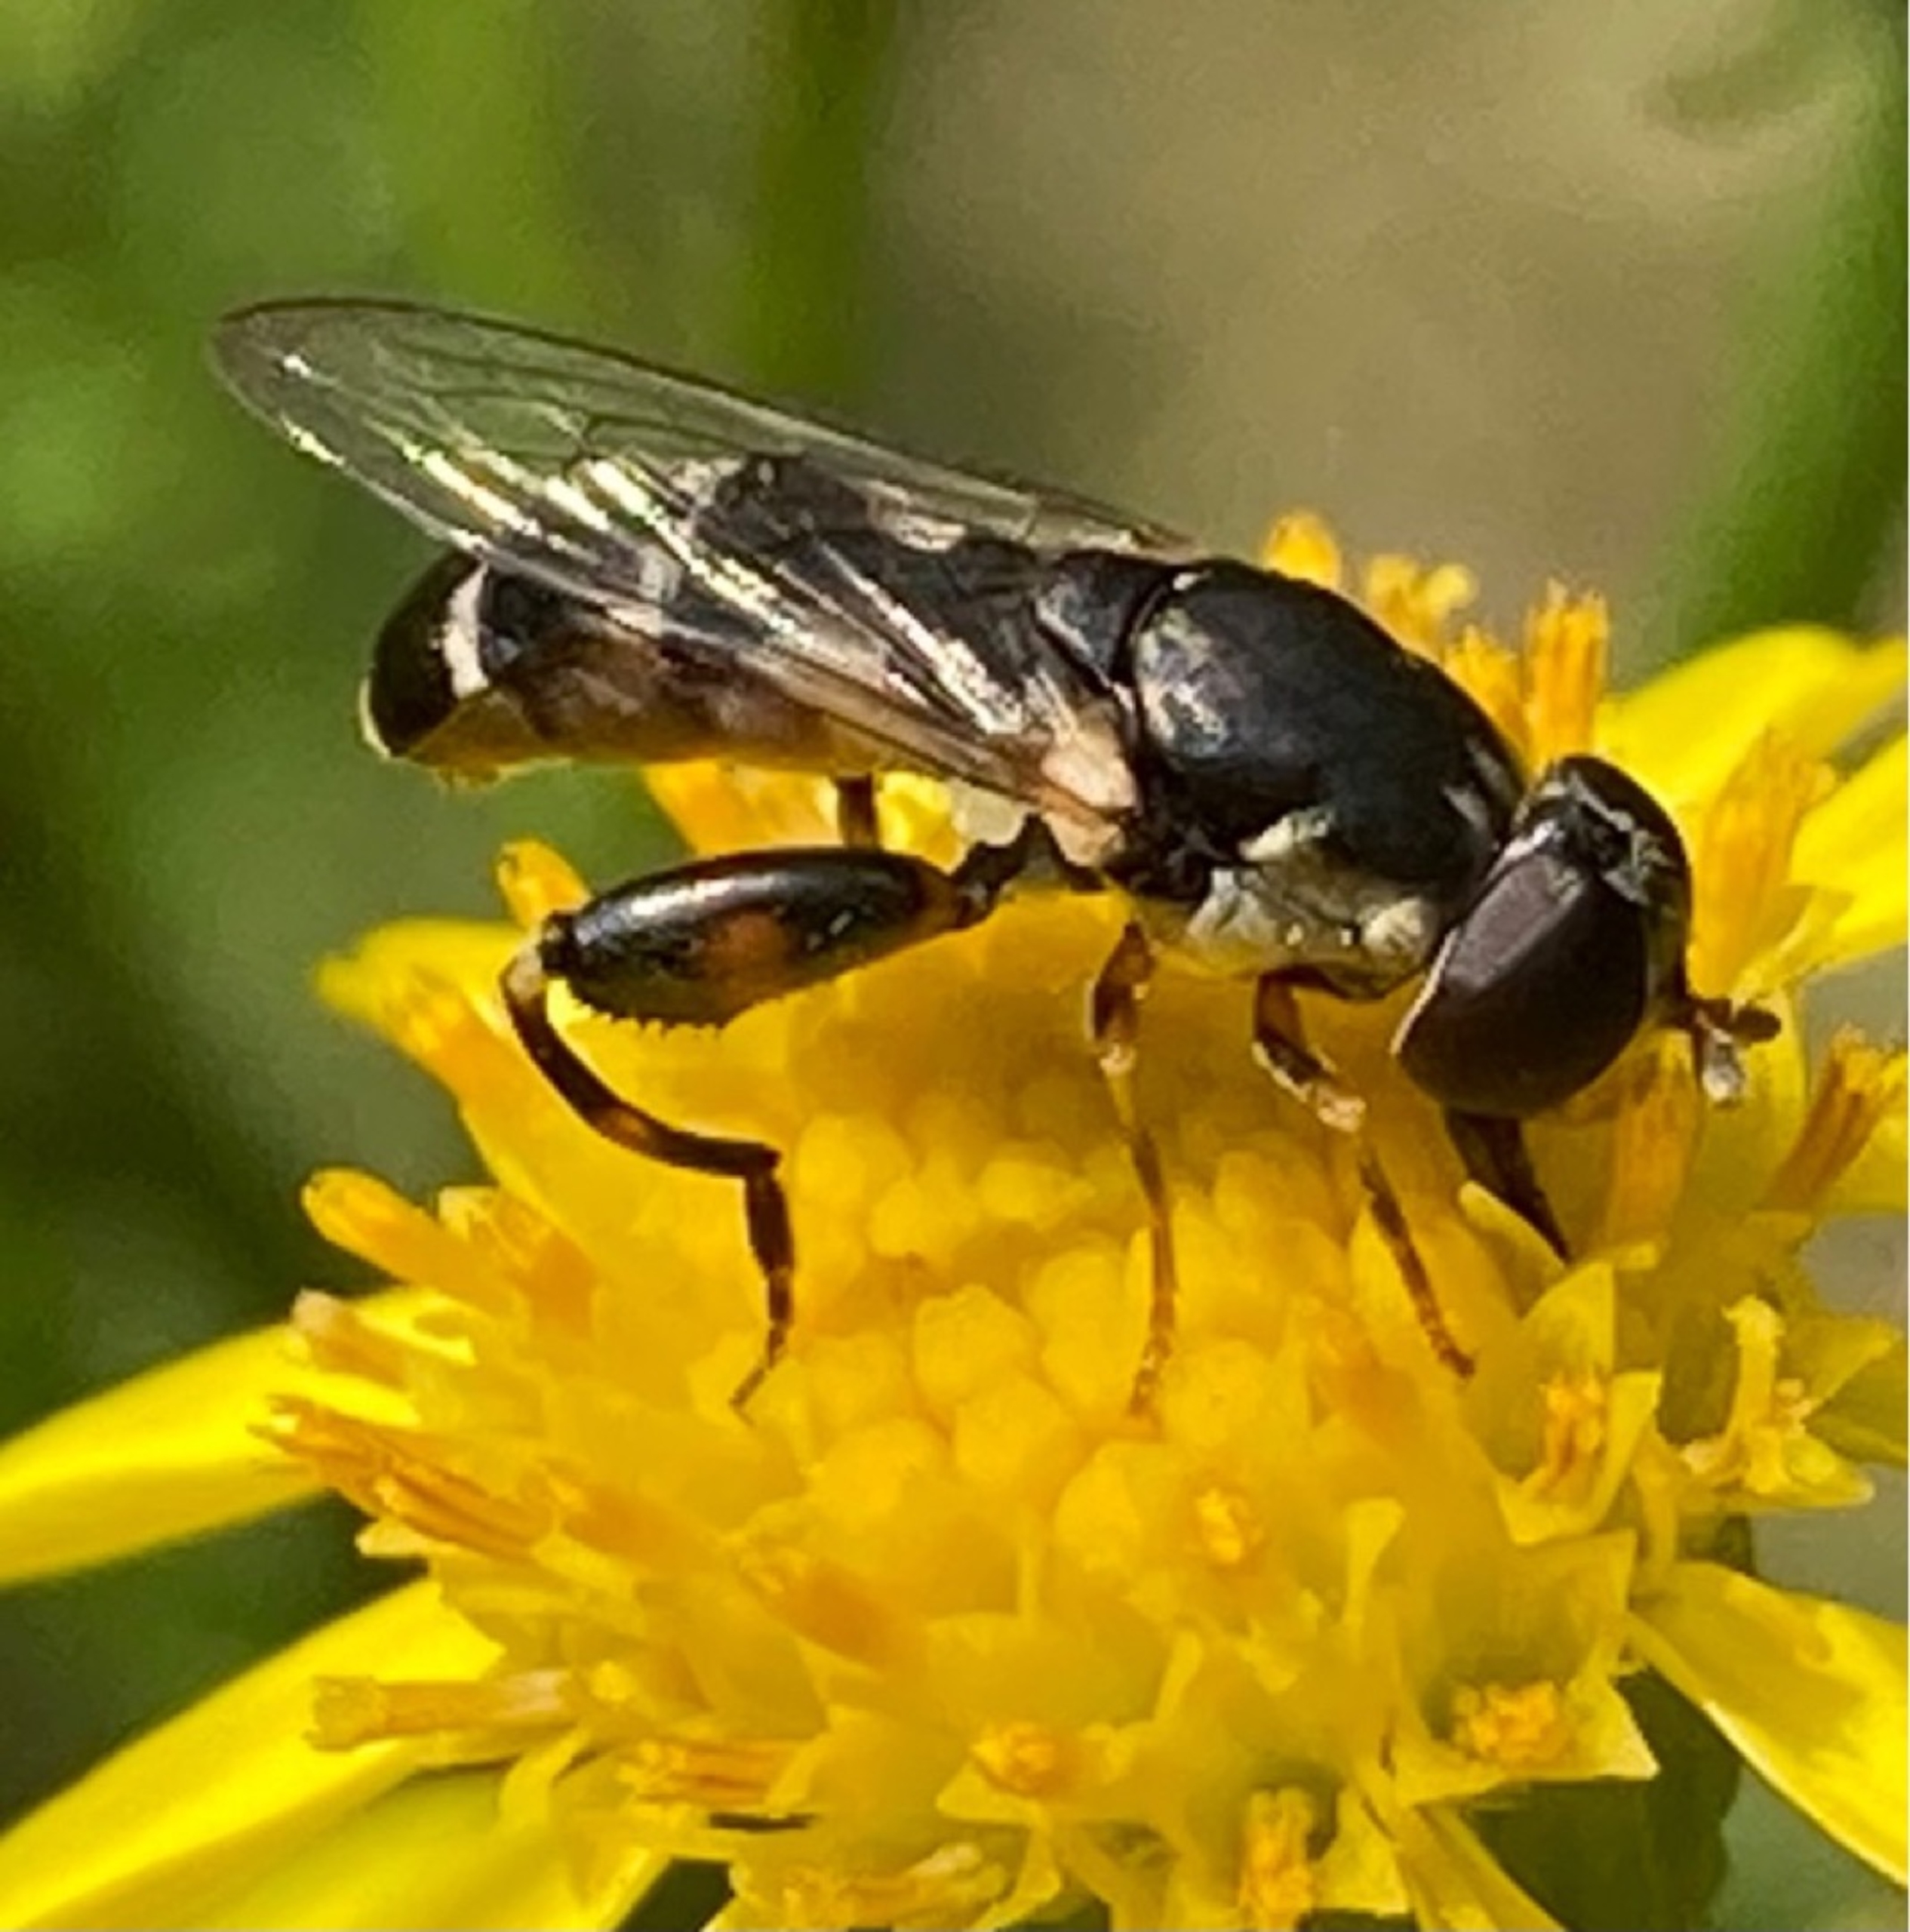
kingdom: Animalia
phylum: Arthropoda
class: Insecta
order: Diptera
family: Syrphidae
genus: Syritta
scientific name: Syritta pipiens
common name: Kompost-svirreflue
